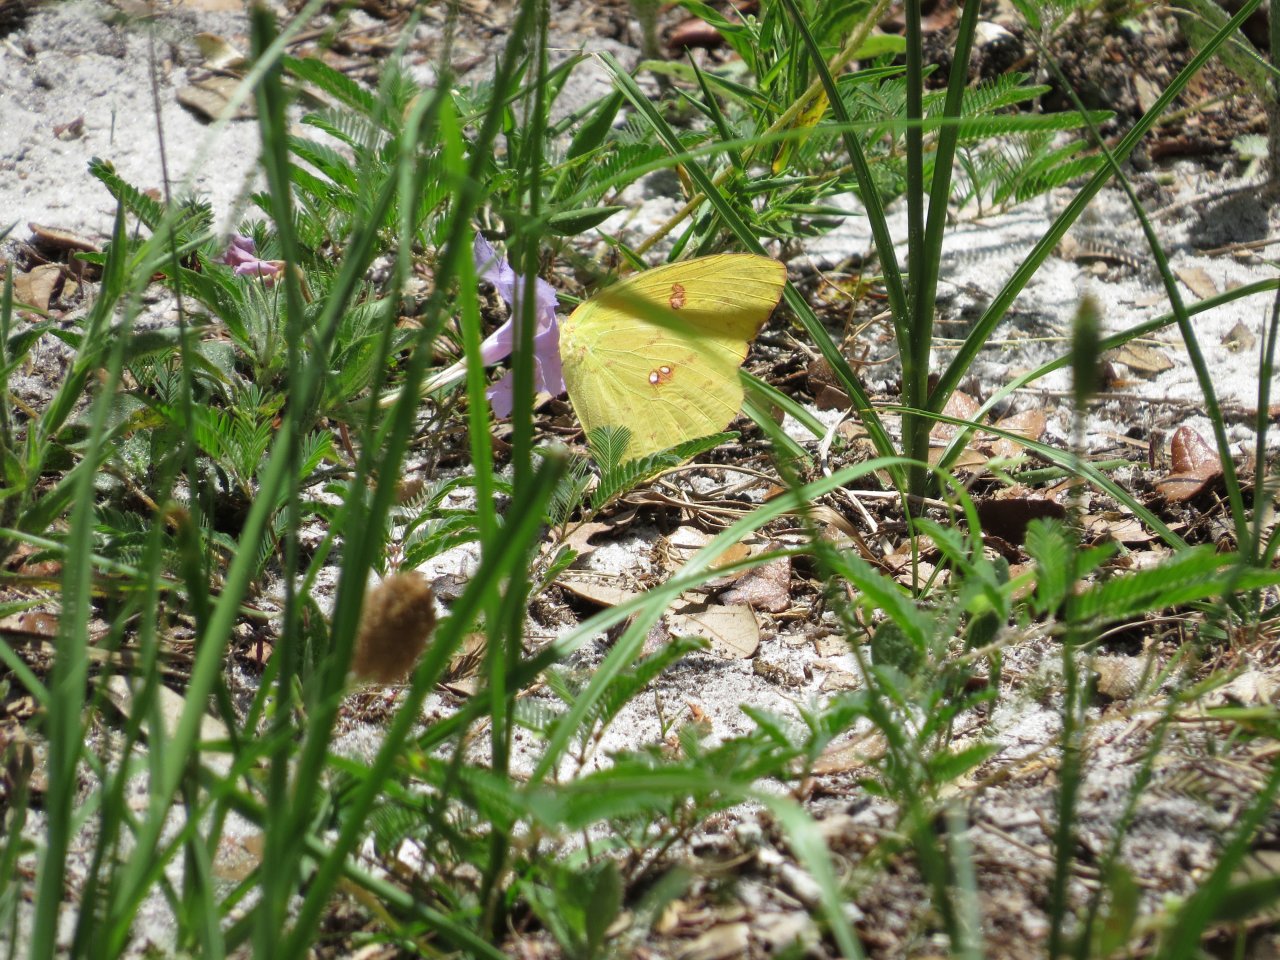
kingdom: Animalia
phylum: Arthropoda
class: Insecta
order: Lepidoptera
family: Pieridae
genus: Phoebis
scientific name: Phoebis sennae
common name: Cloudless Sulphur
